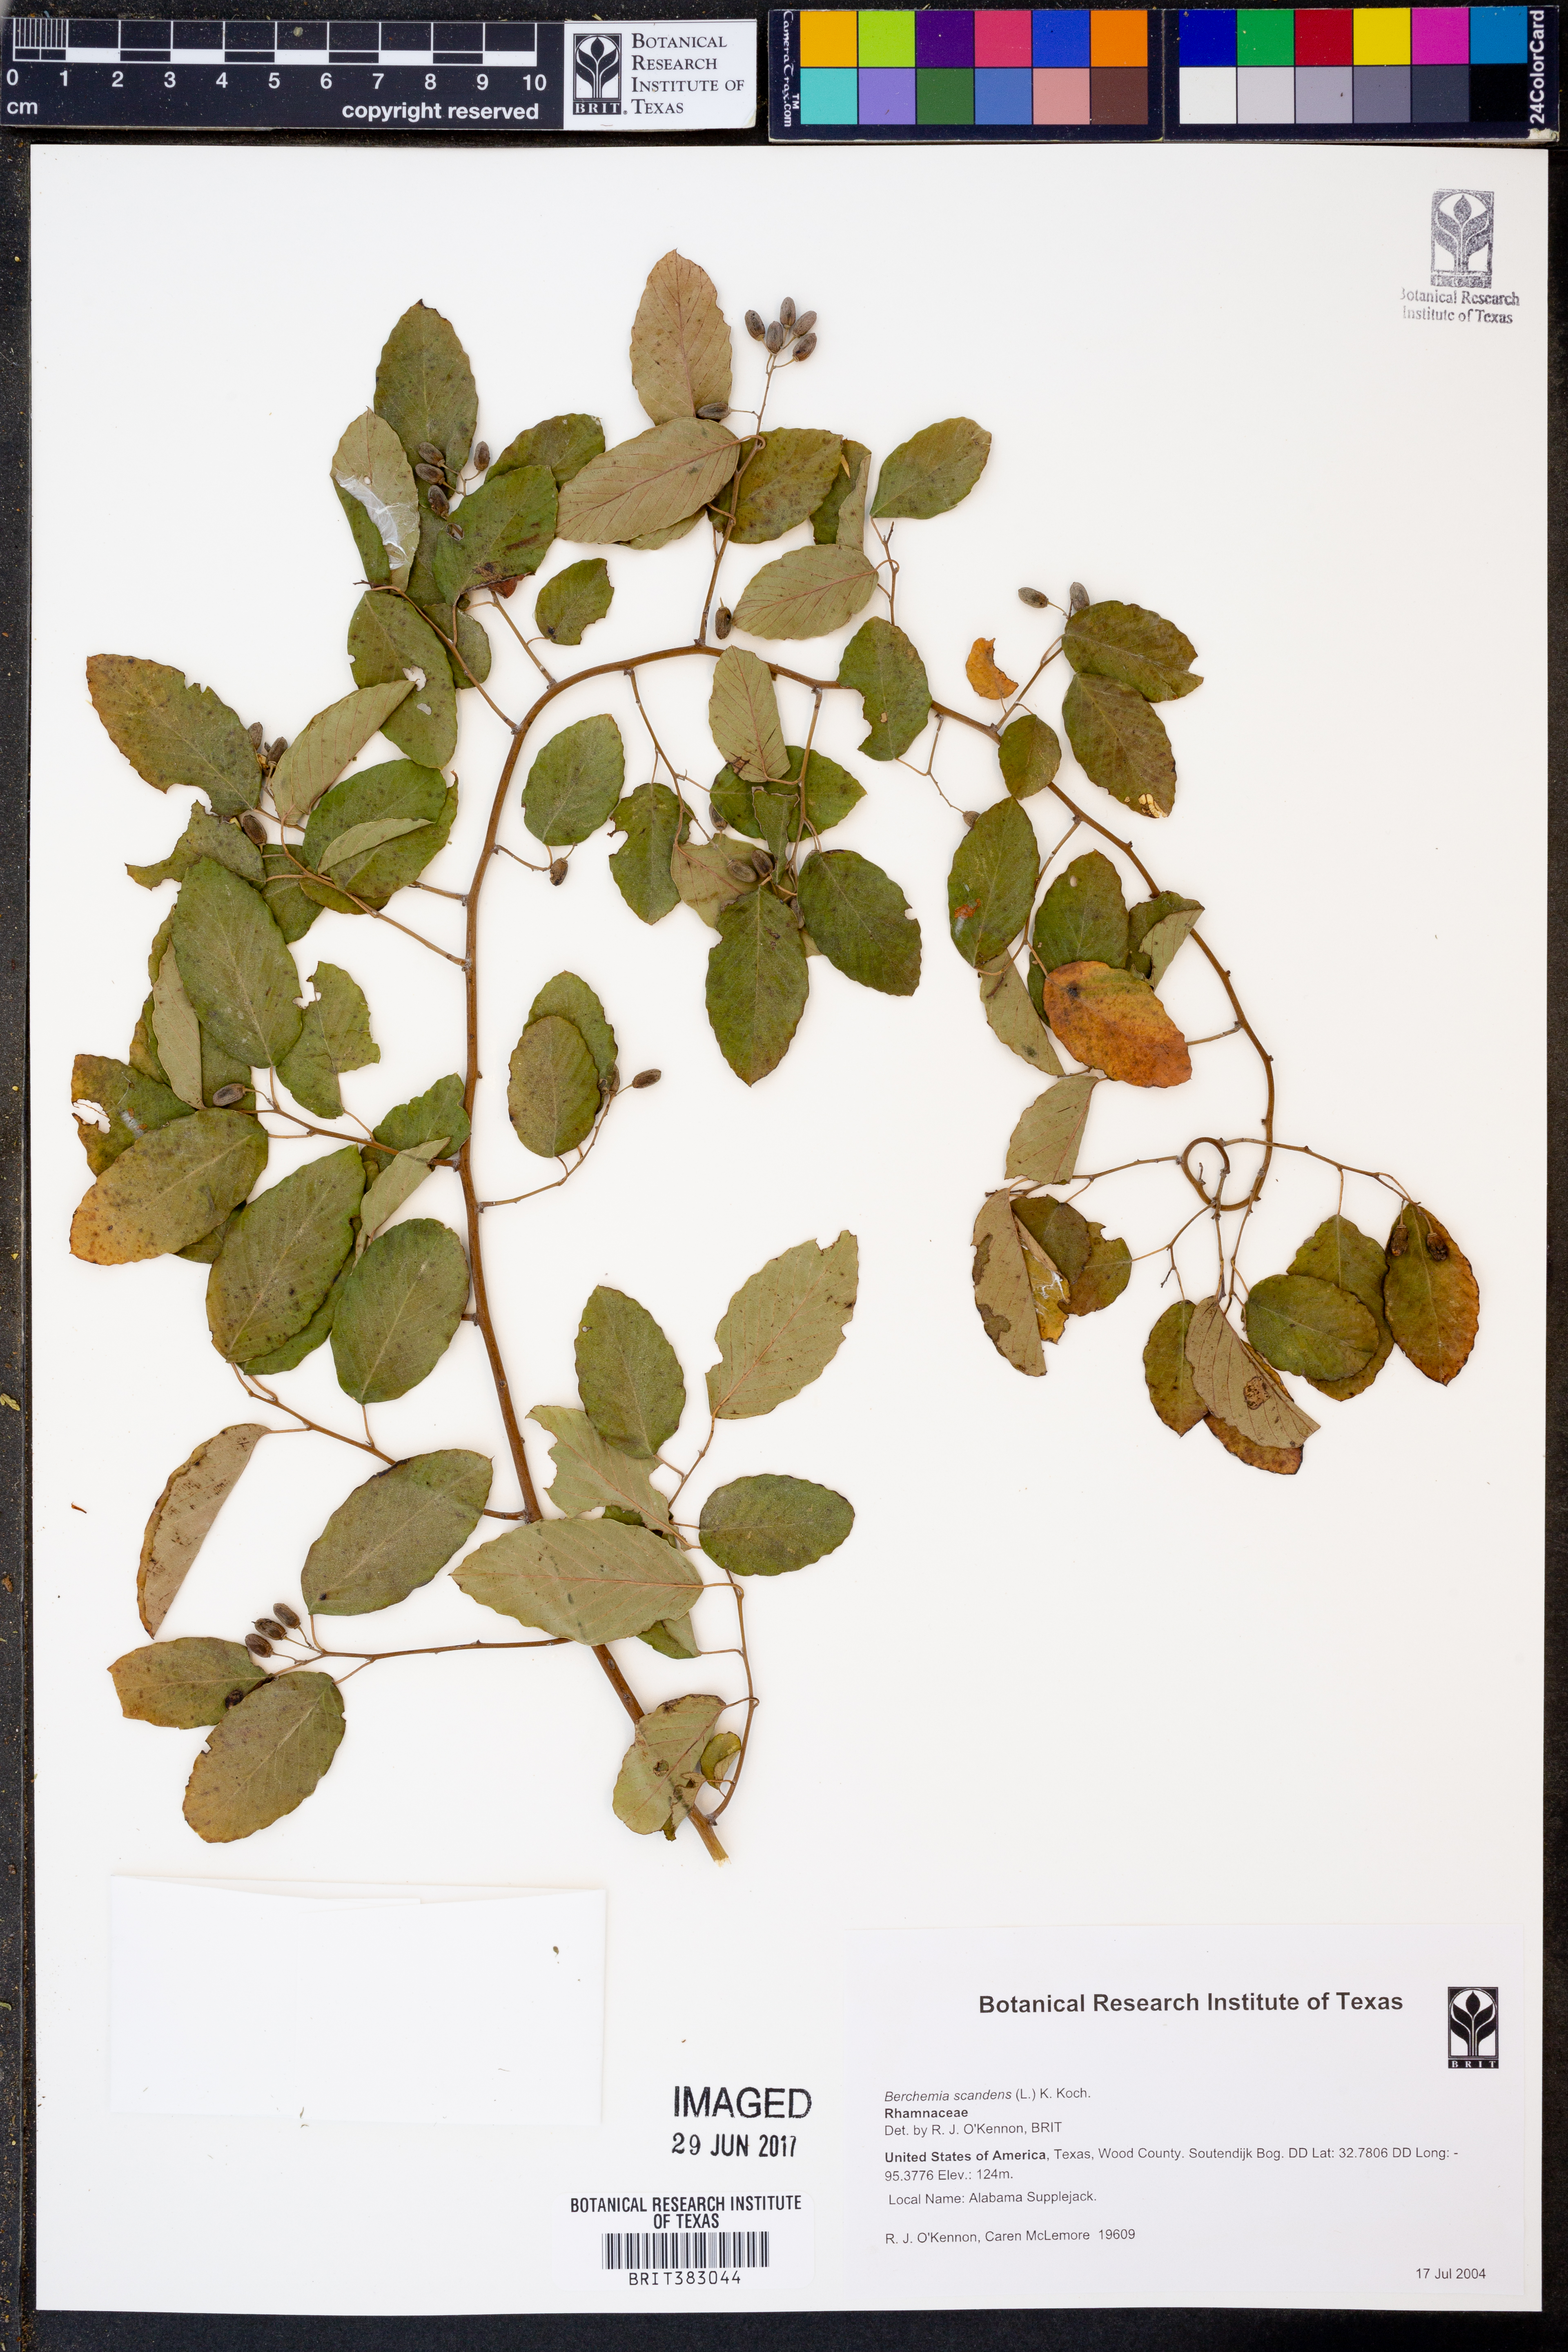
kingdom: Plantae
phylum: Tracheophyta
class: Magnoliopsida
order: Rosales
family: Rhamnaceae
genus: Berchemia
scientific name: Berchemia scandens
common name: Supplejack
